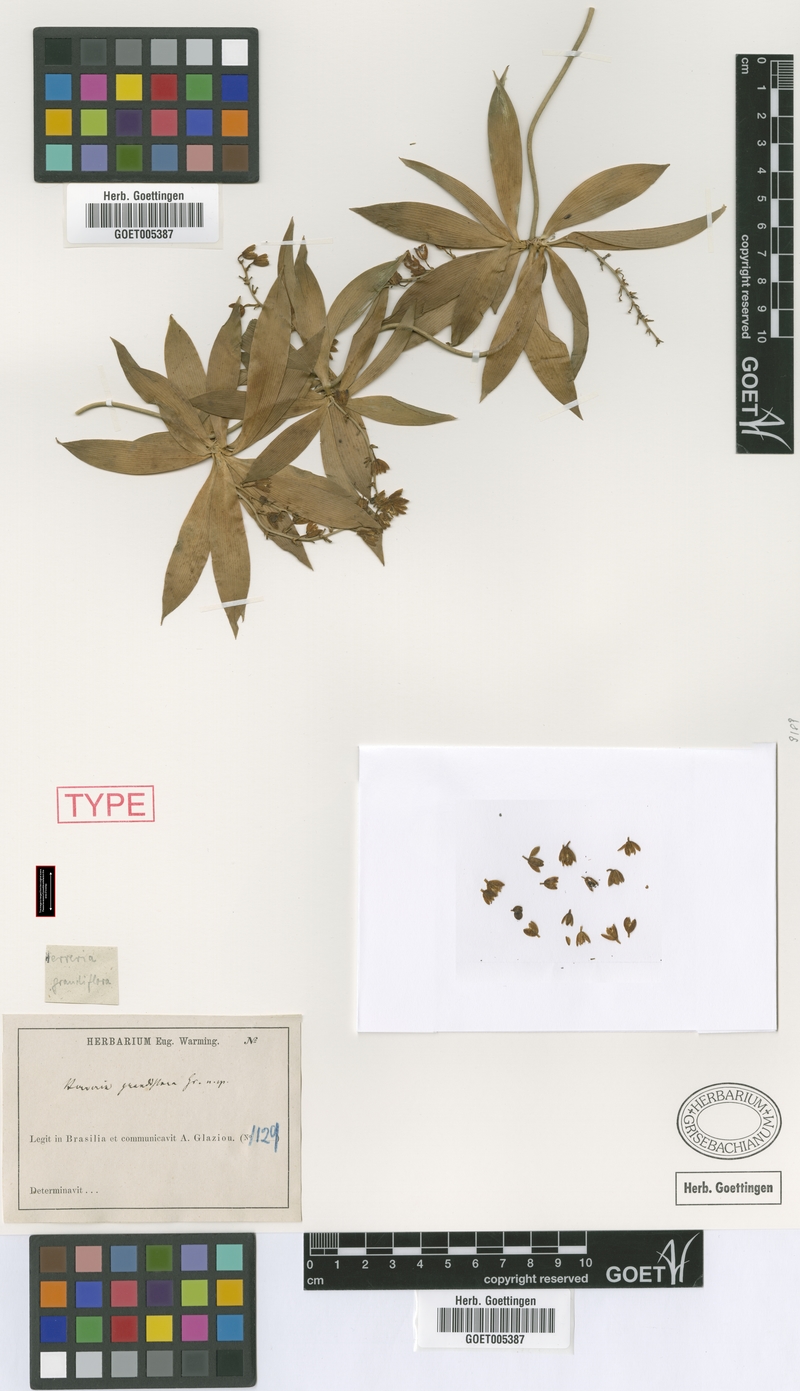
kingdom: Plantae
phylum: Tracheophyta
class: Liliopsida
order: Asparagales
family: Asparagaceae
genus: Herreria
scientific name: Herreria grandiflora
